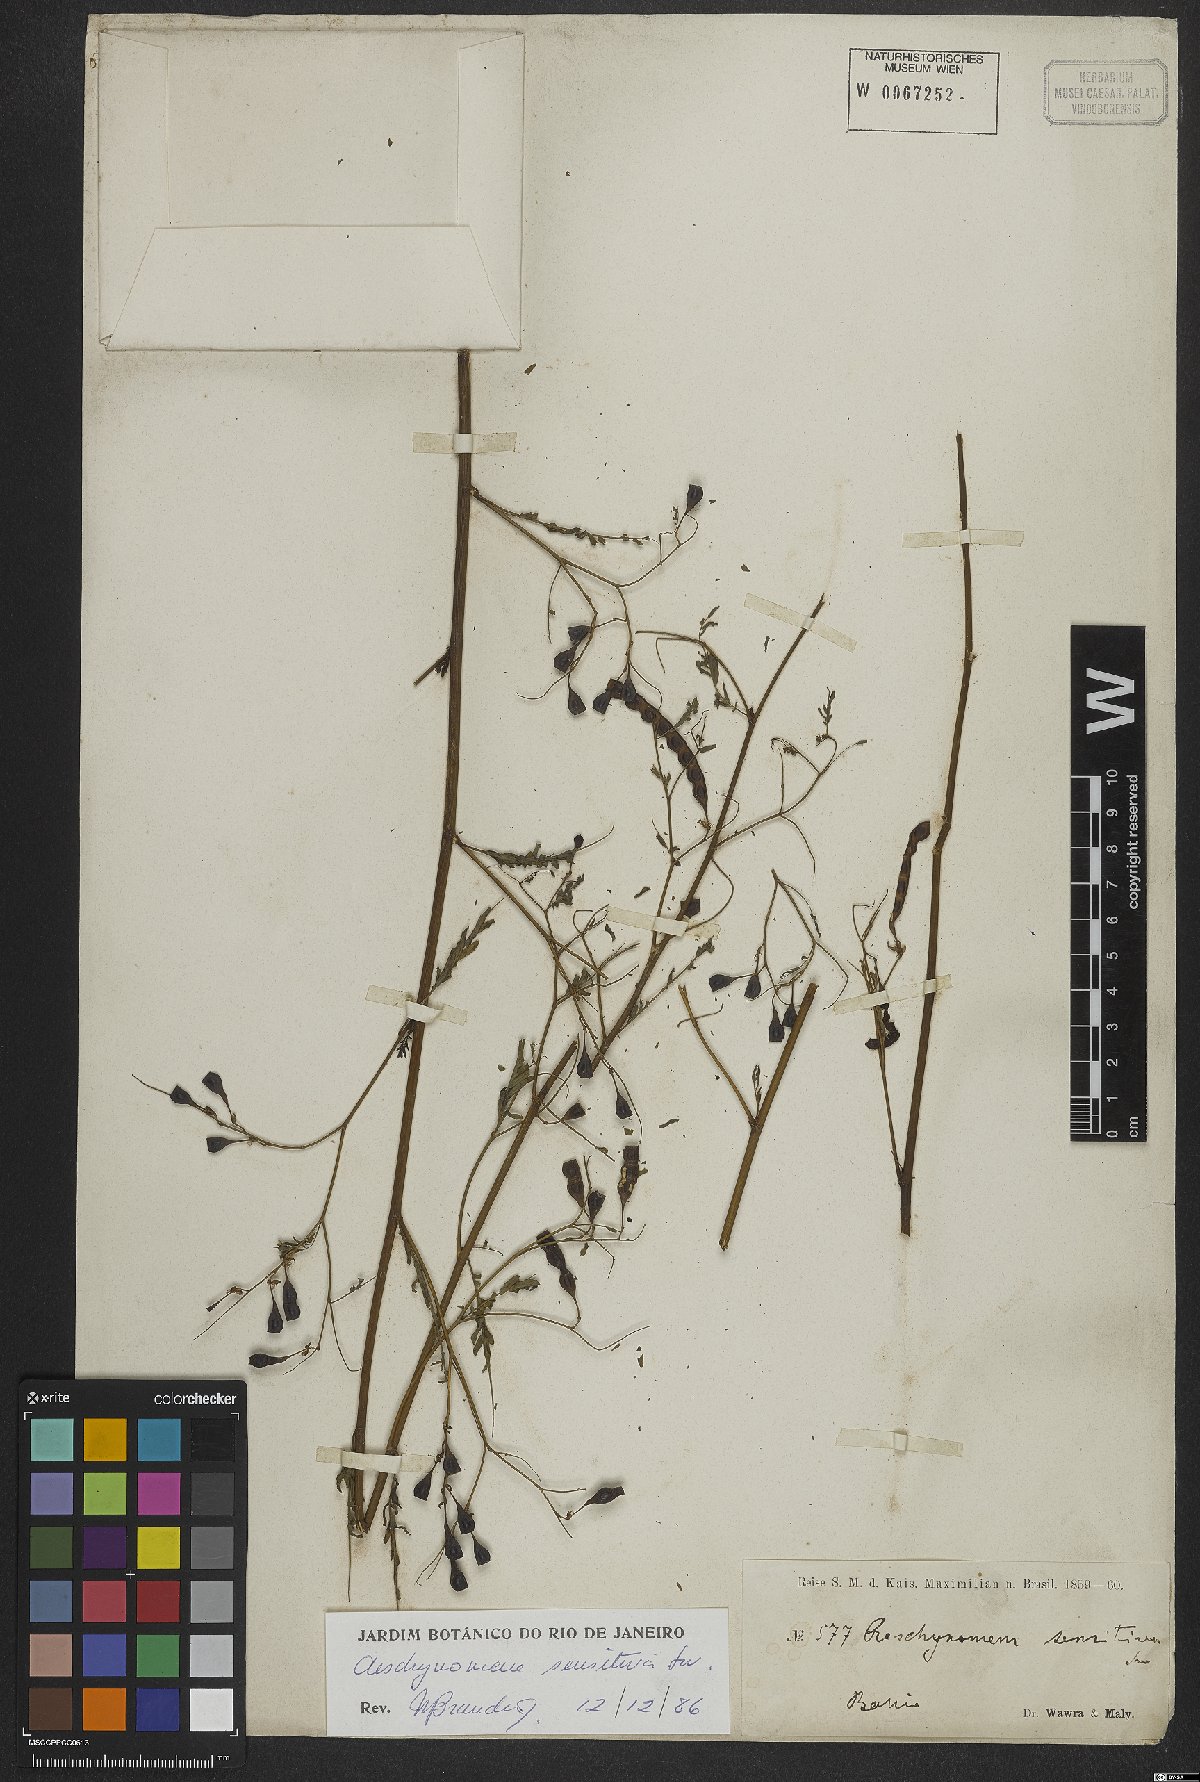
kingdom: Plantae
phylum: Tracheophyta
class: Magnoliopsida
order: Fabales
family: Fabaceae
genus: Aeschynomene
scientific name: Aeschynomene sensitiva
